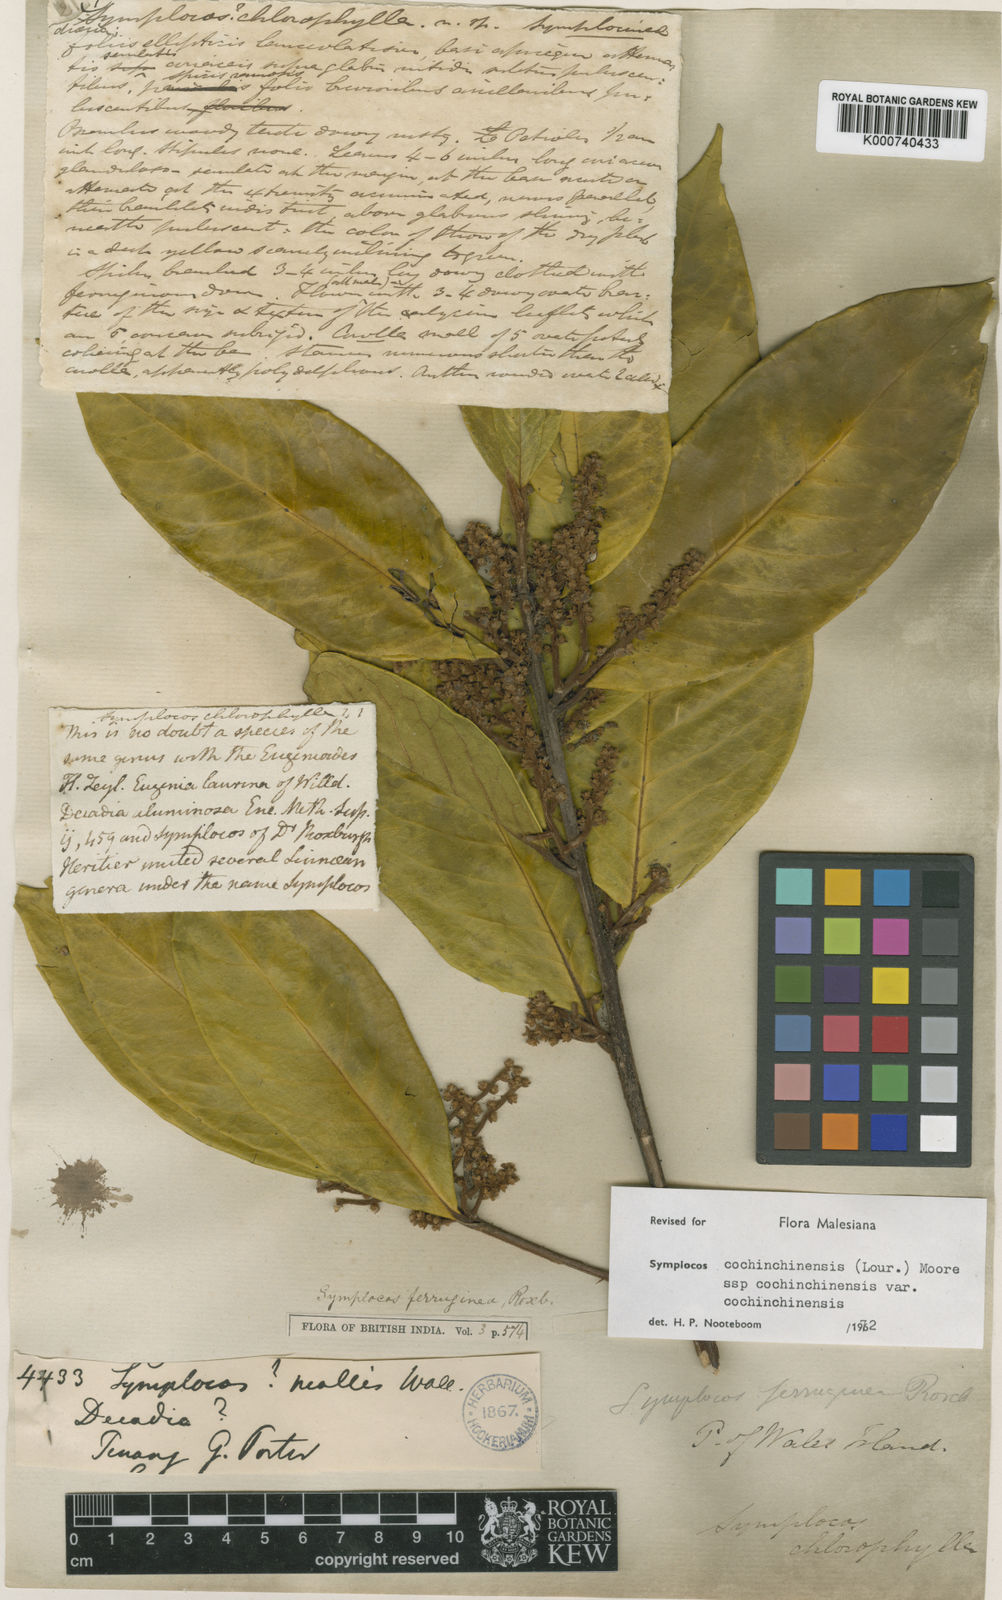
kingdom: Plantae
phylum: Tracheophyta
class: Magnoliopsida
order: Ericales
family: Symplocaceae
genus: Symplocos
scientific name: Symplocos cochinchinensis
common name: Buff hazelwood
